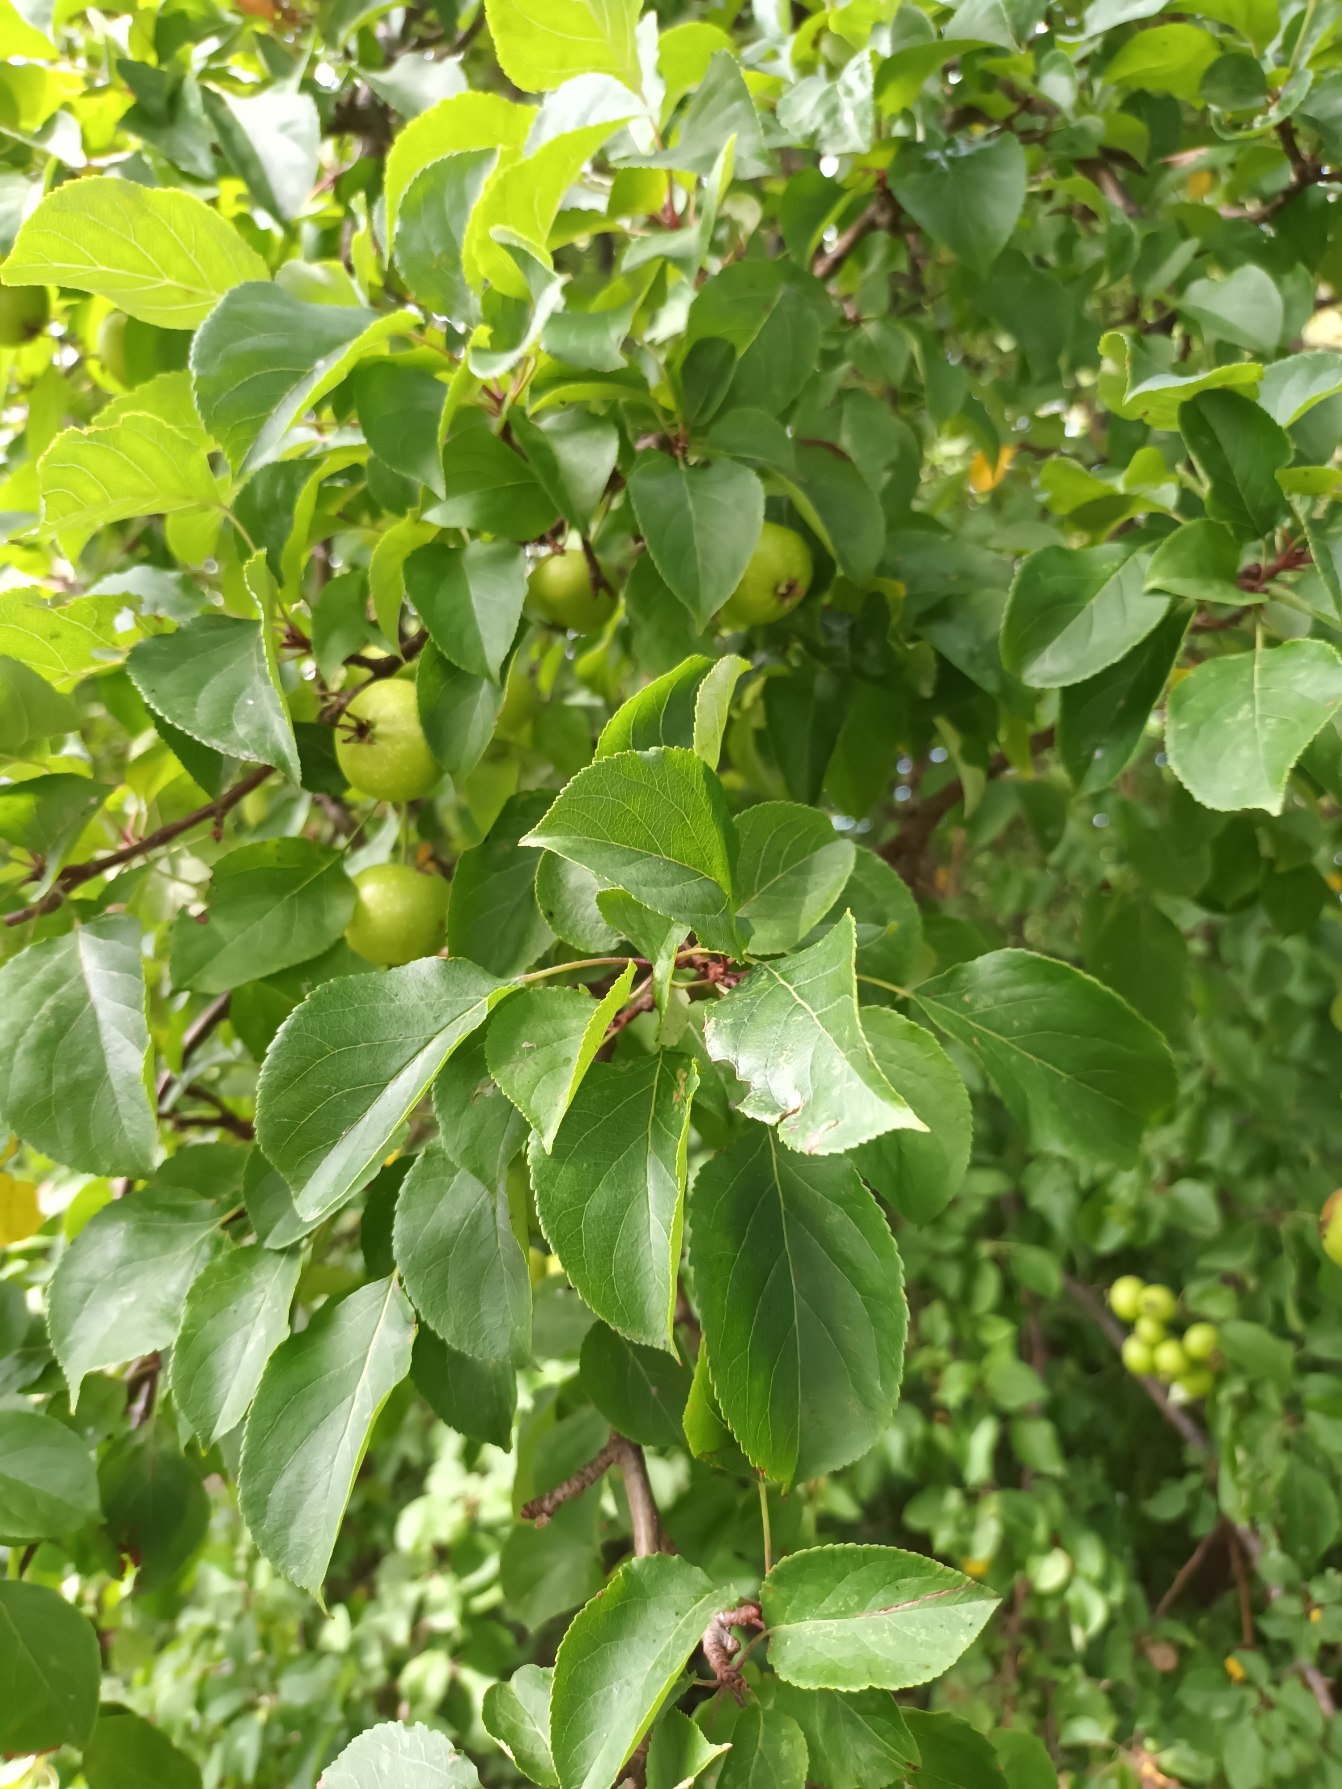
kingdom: Plantae
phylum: Tracheophyta
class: Magnoliopsida
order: Rosales
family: Rosaceae
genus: Malus
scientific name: Malus sylvestris
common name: Skov-æble
